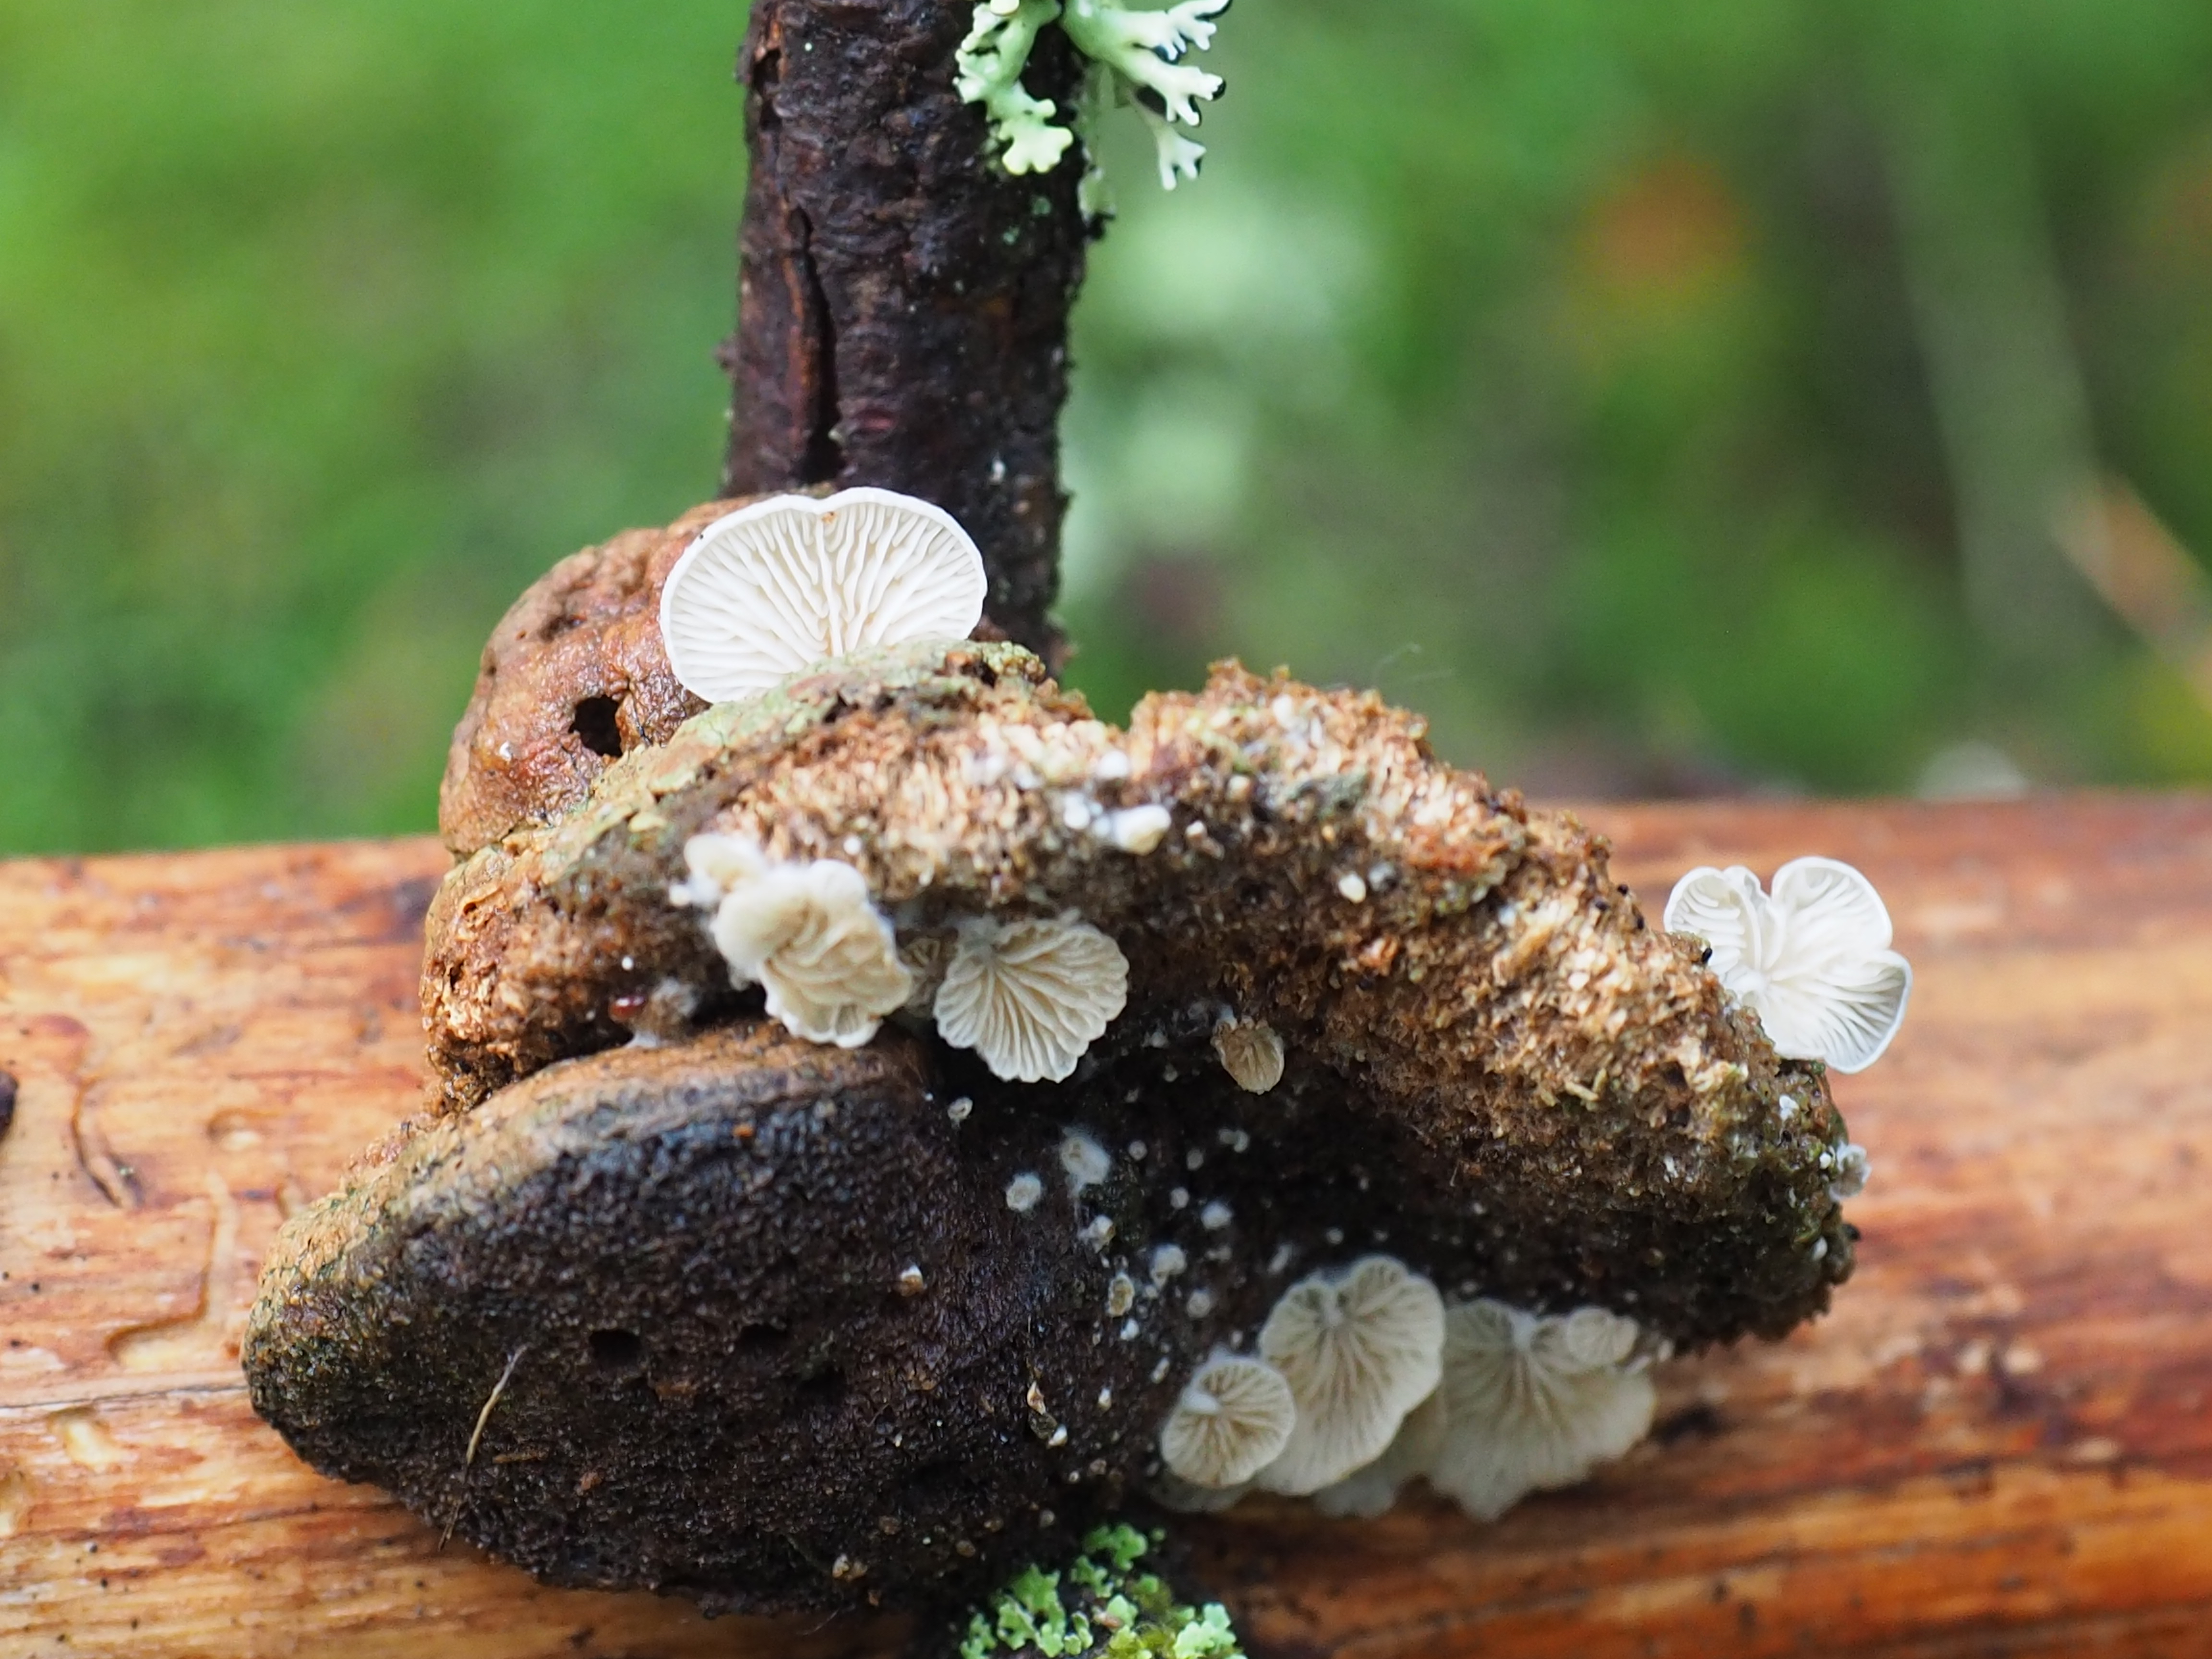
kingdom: Fungi
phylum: Basidiomycota
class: Agaricomycetes
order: Agaricales
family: Entolomataceae
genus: Clitopilus
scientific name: Clitopilus hobsonii
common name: Miller's oysterling
